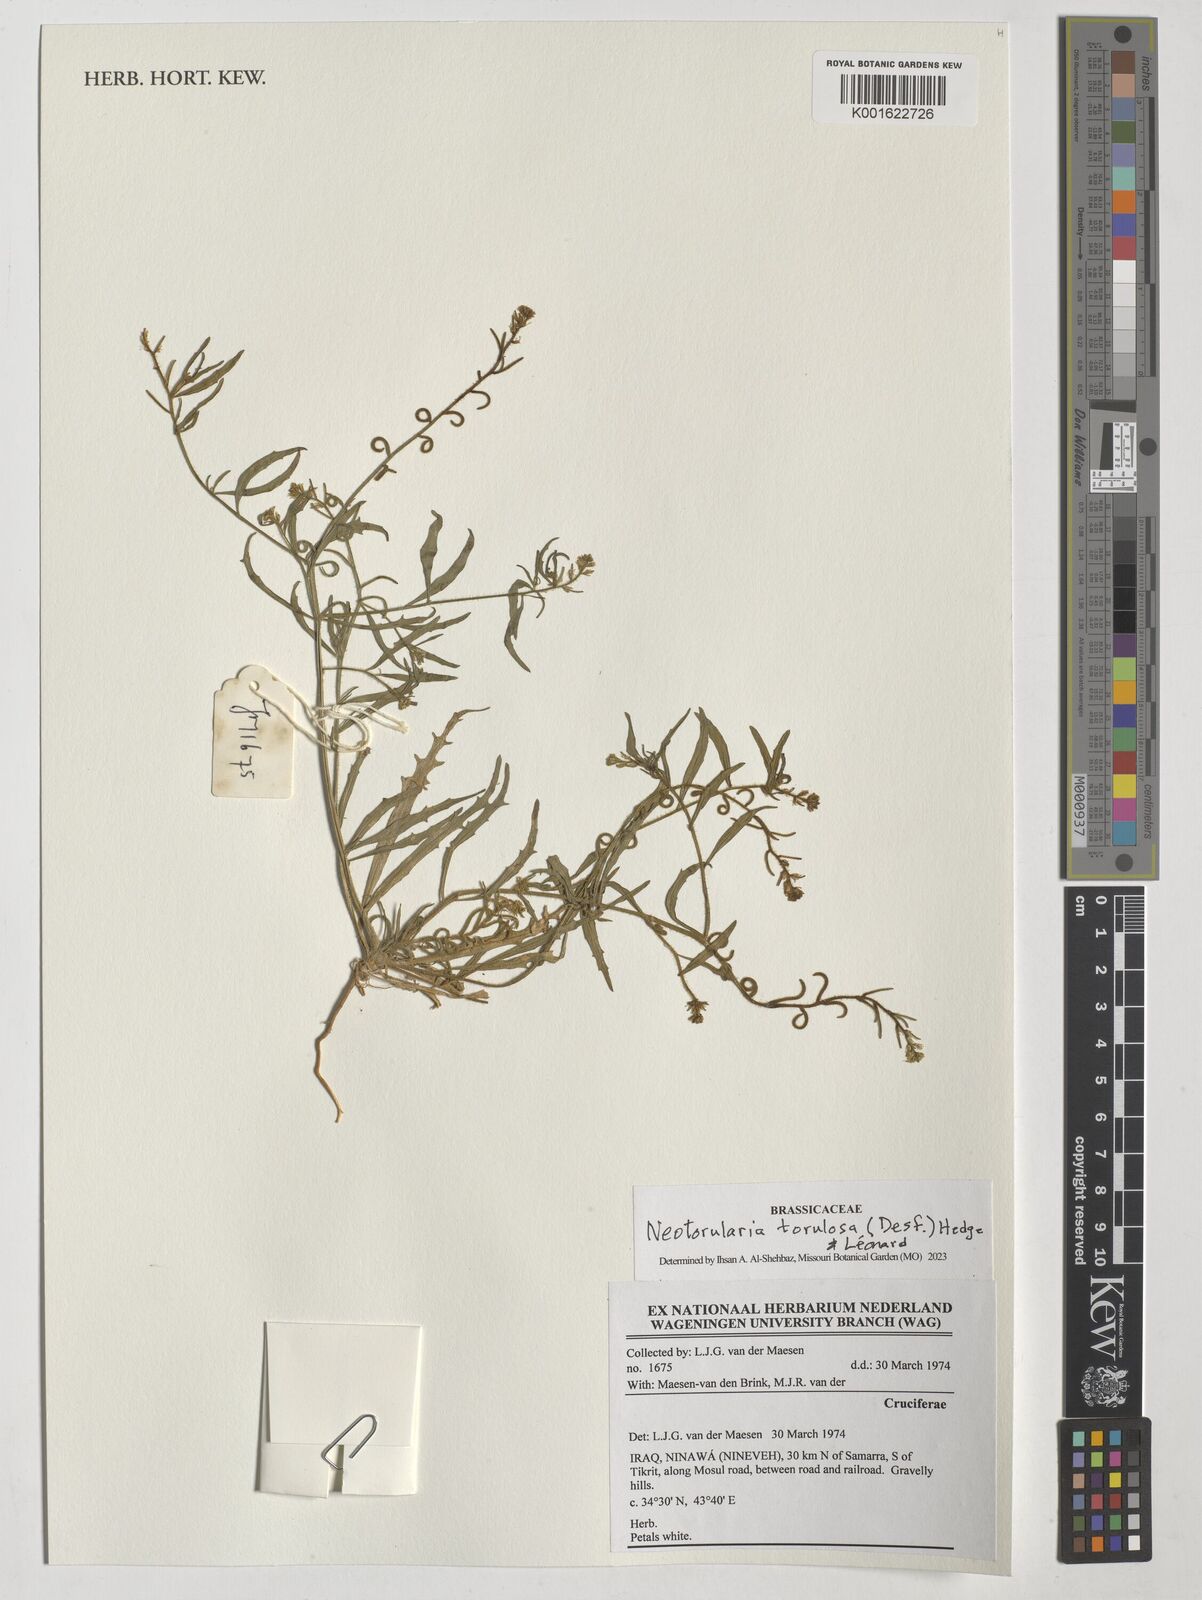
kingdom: Plantae
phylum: Tracheophyta
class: Magnoliopsida
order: Brassicales
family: Brassicaceae
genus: Neotorularia
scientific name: Neotorularia torulosa
